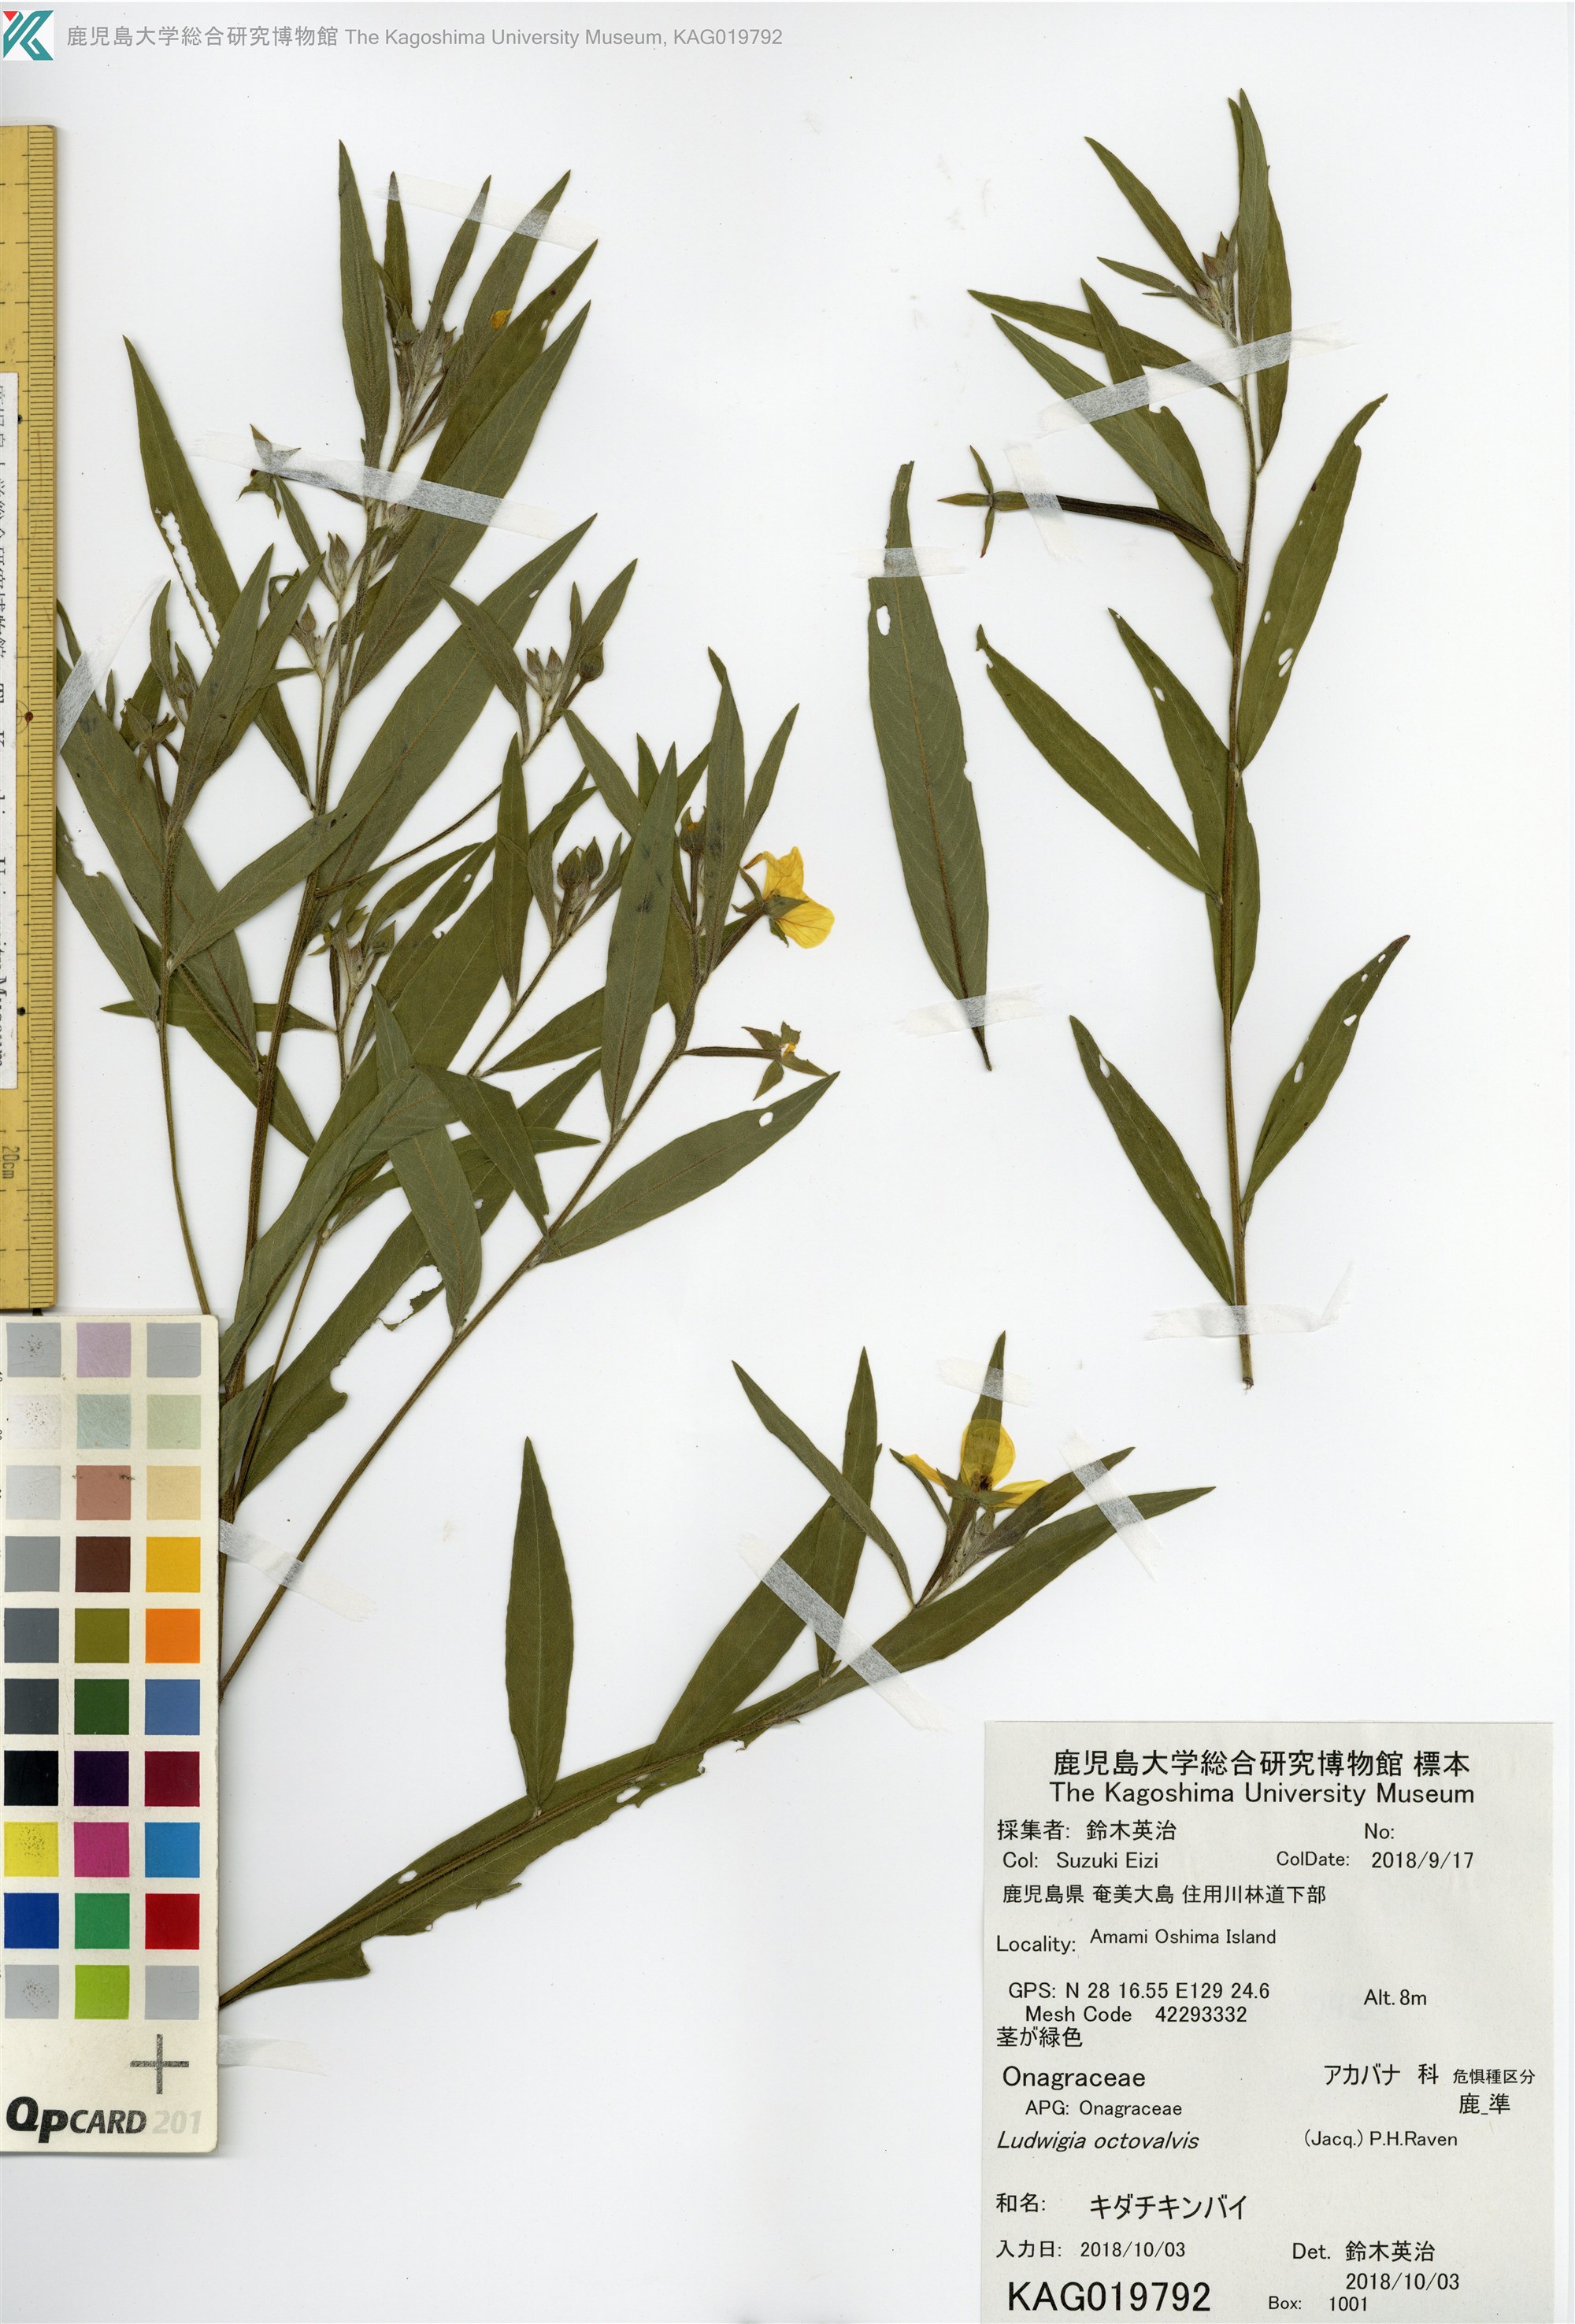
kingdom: Plantae
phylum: Tracheophyta
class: Magnoliopsida
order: Myrtales
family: Onagraceae
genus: Ludwigia
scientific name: Ludwigia octovalvis
